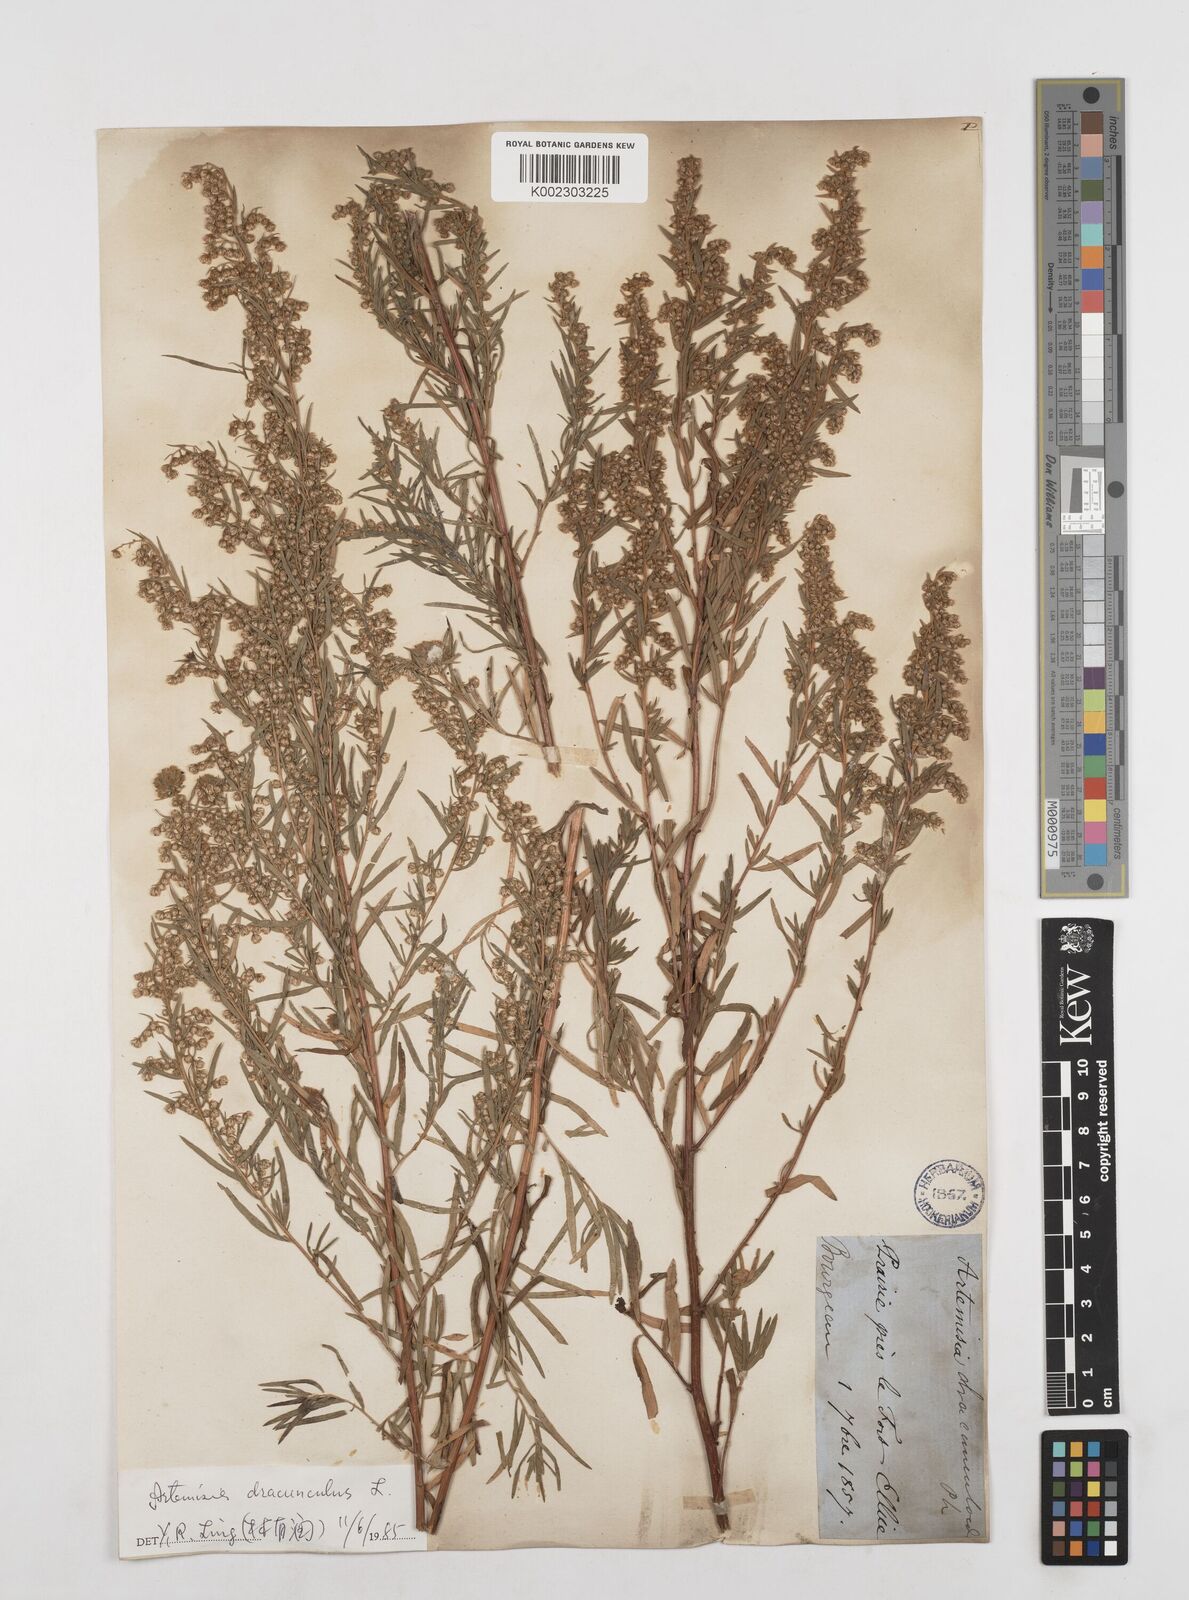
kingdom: Plantae
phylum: Tracheophyta
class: Magnoliopsida
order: Asterales
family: Asteraceae
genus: Artemisia
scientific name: Artemisia dracunculus
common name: Tarragon
